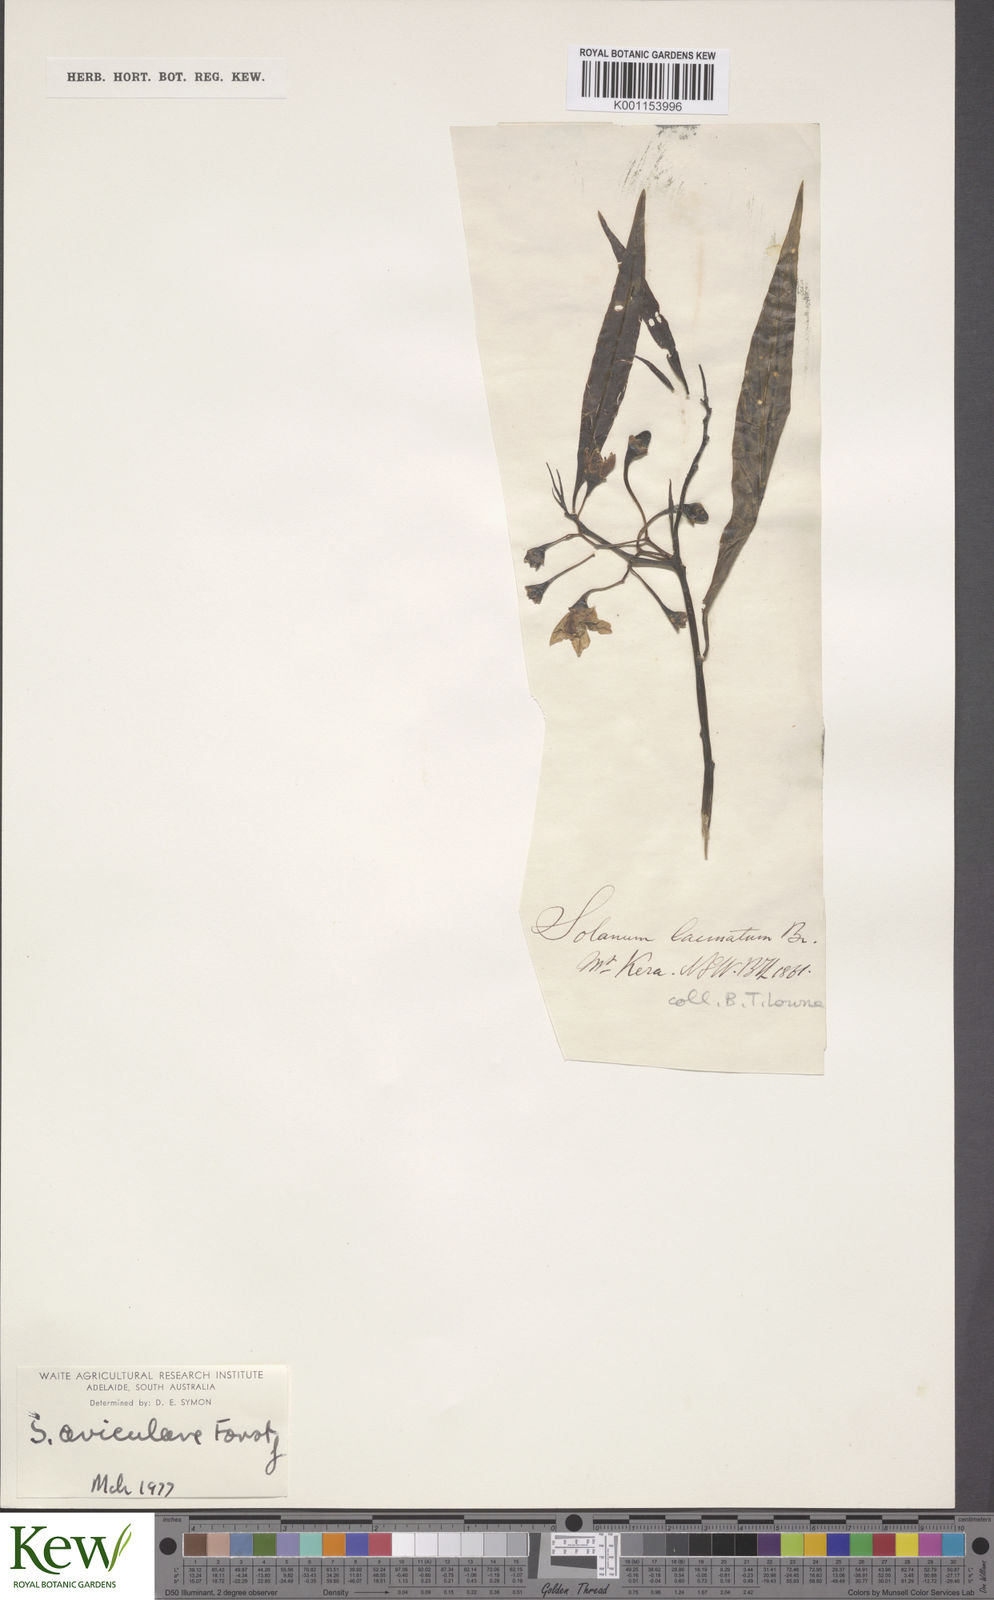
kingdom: Plantae
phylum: Tracheophyta
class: Magnoliopsida
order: Solanales
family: Solanaceae
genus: Solanum
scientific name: Solanum aviculare
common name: New zealand nightshade
